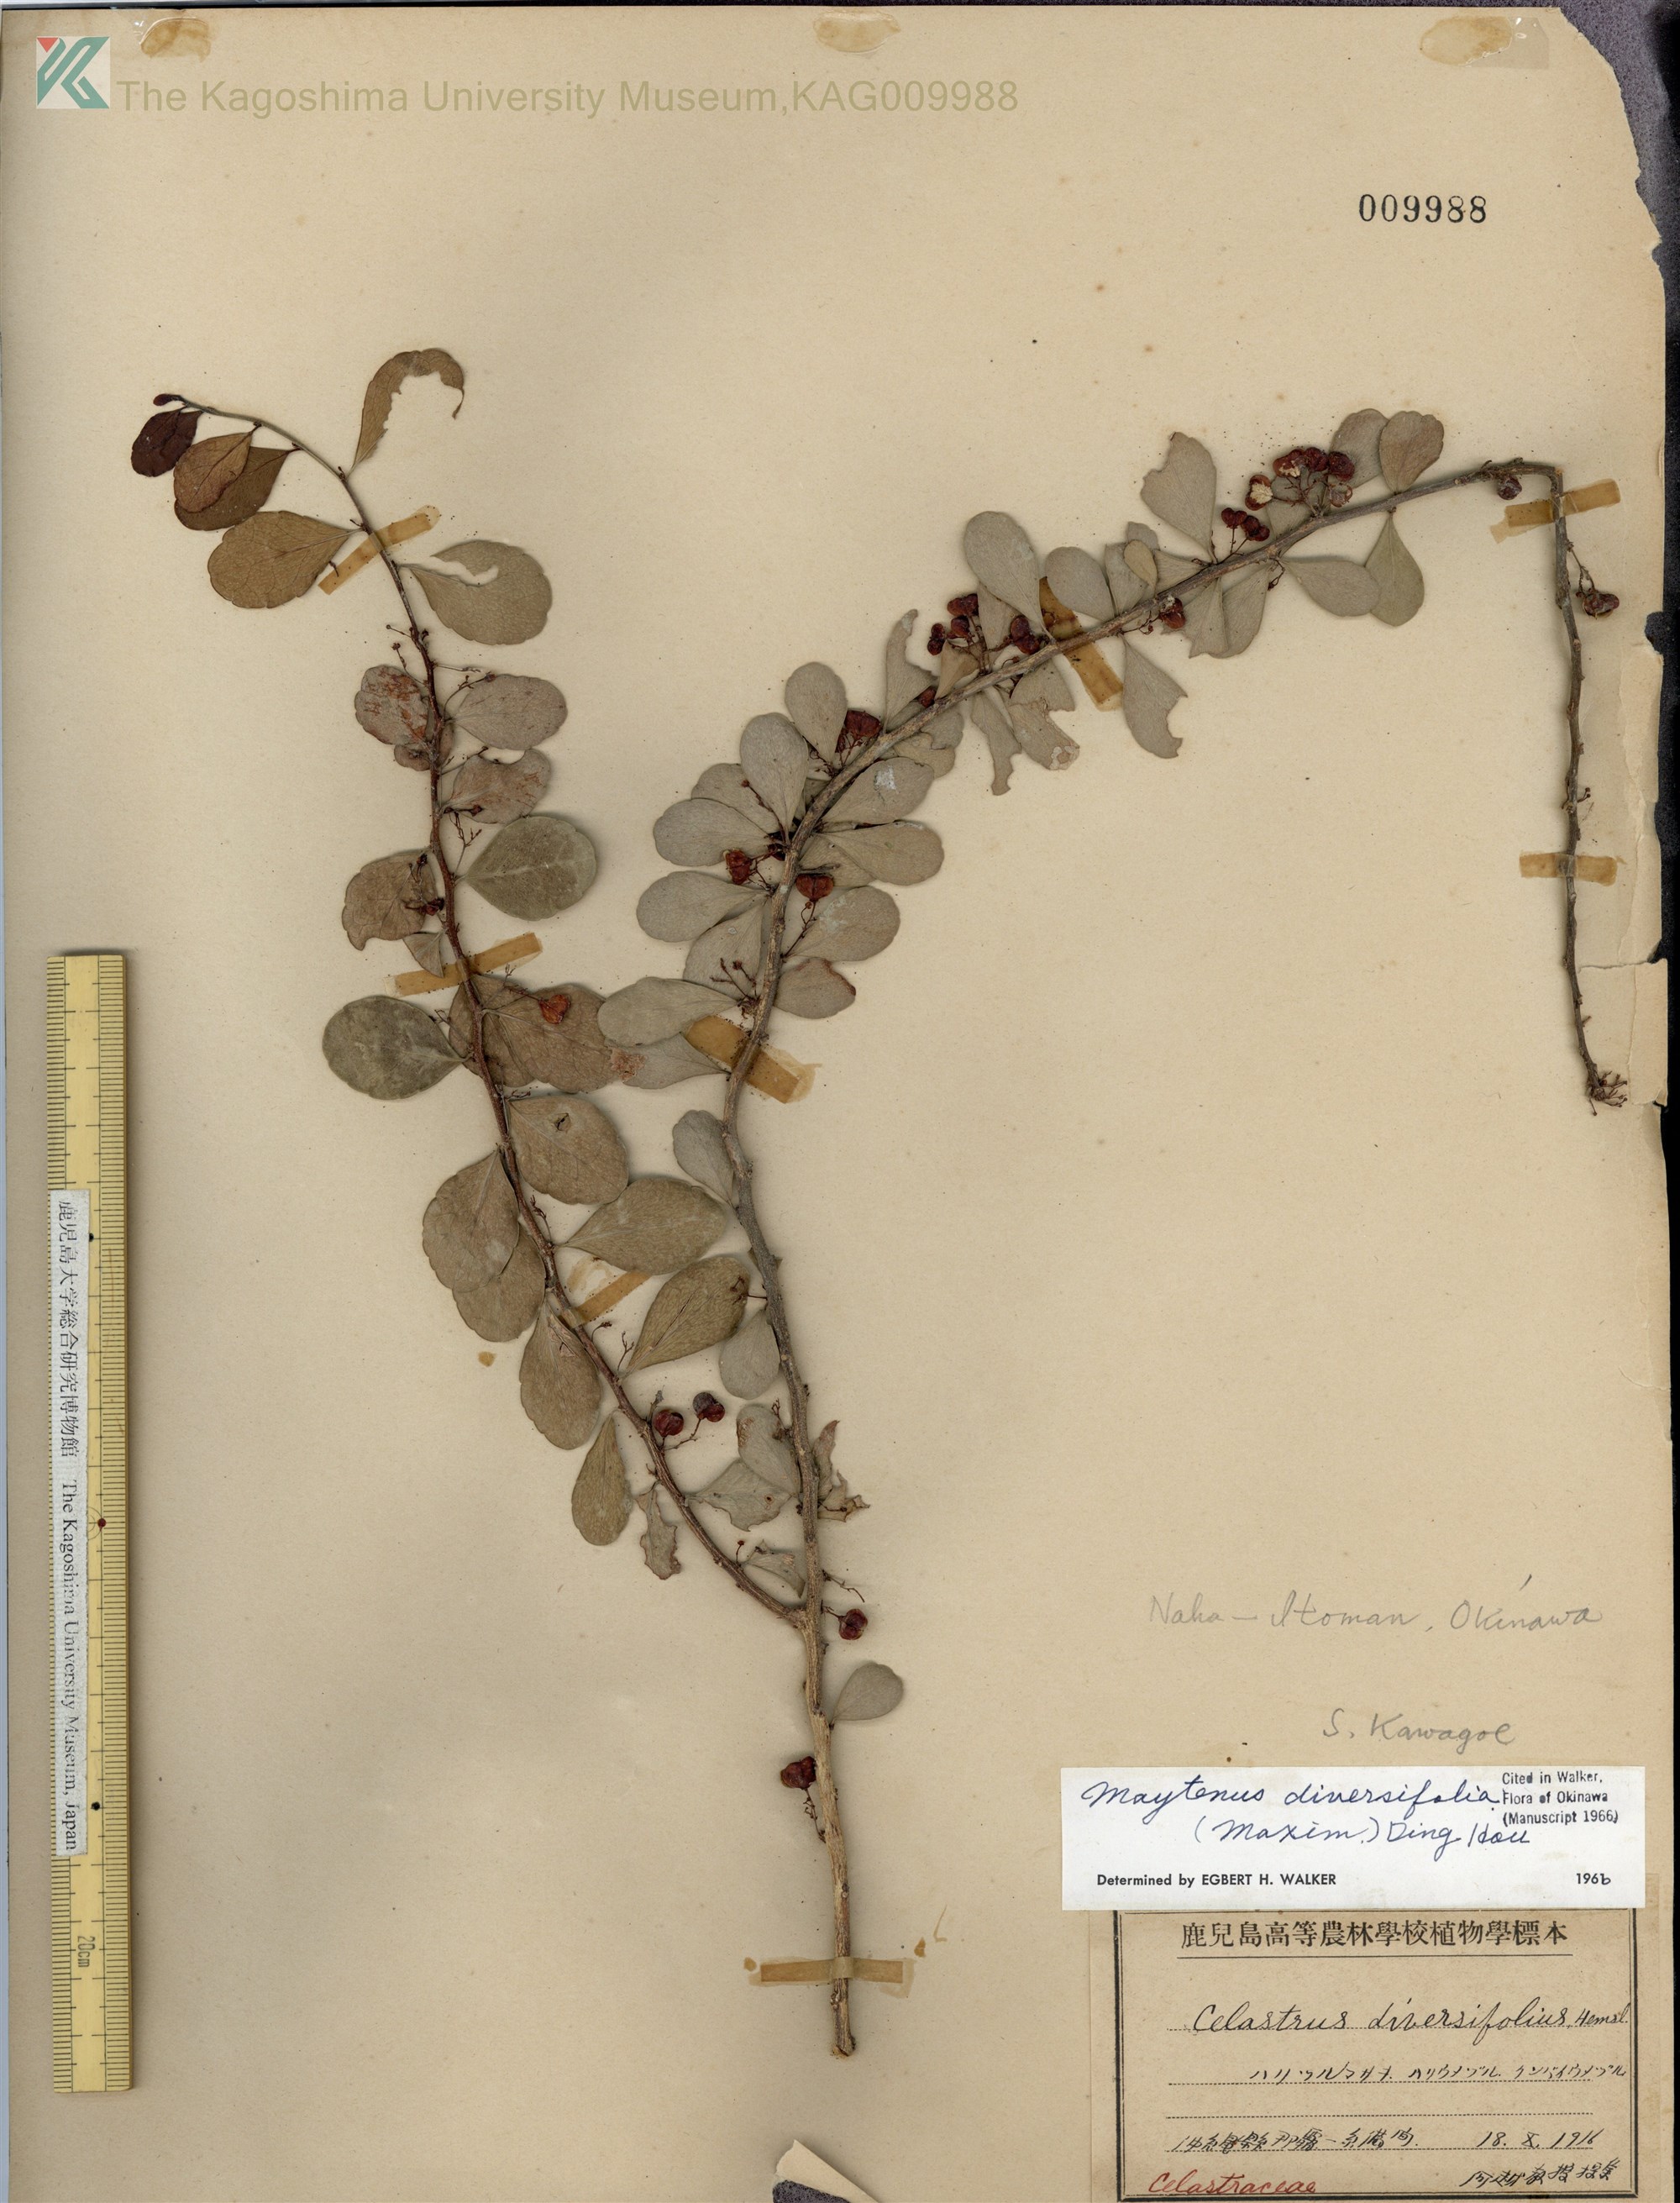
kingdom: Plantae
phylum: Tracheophyta
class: Magnoliopsida
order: Celastrales
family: Celastraceae
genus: Gymnosporia
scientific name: Gymnosporia diversifolia
